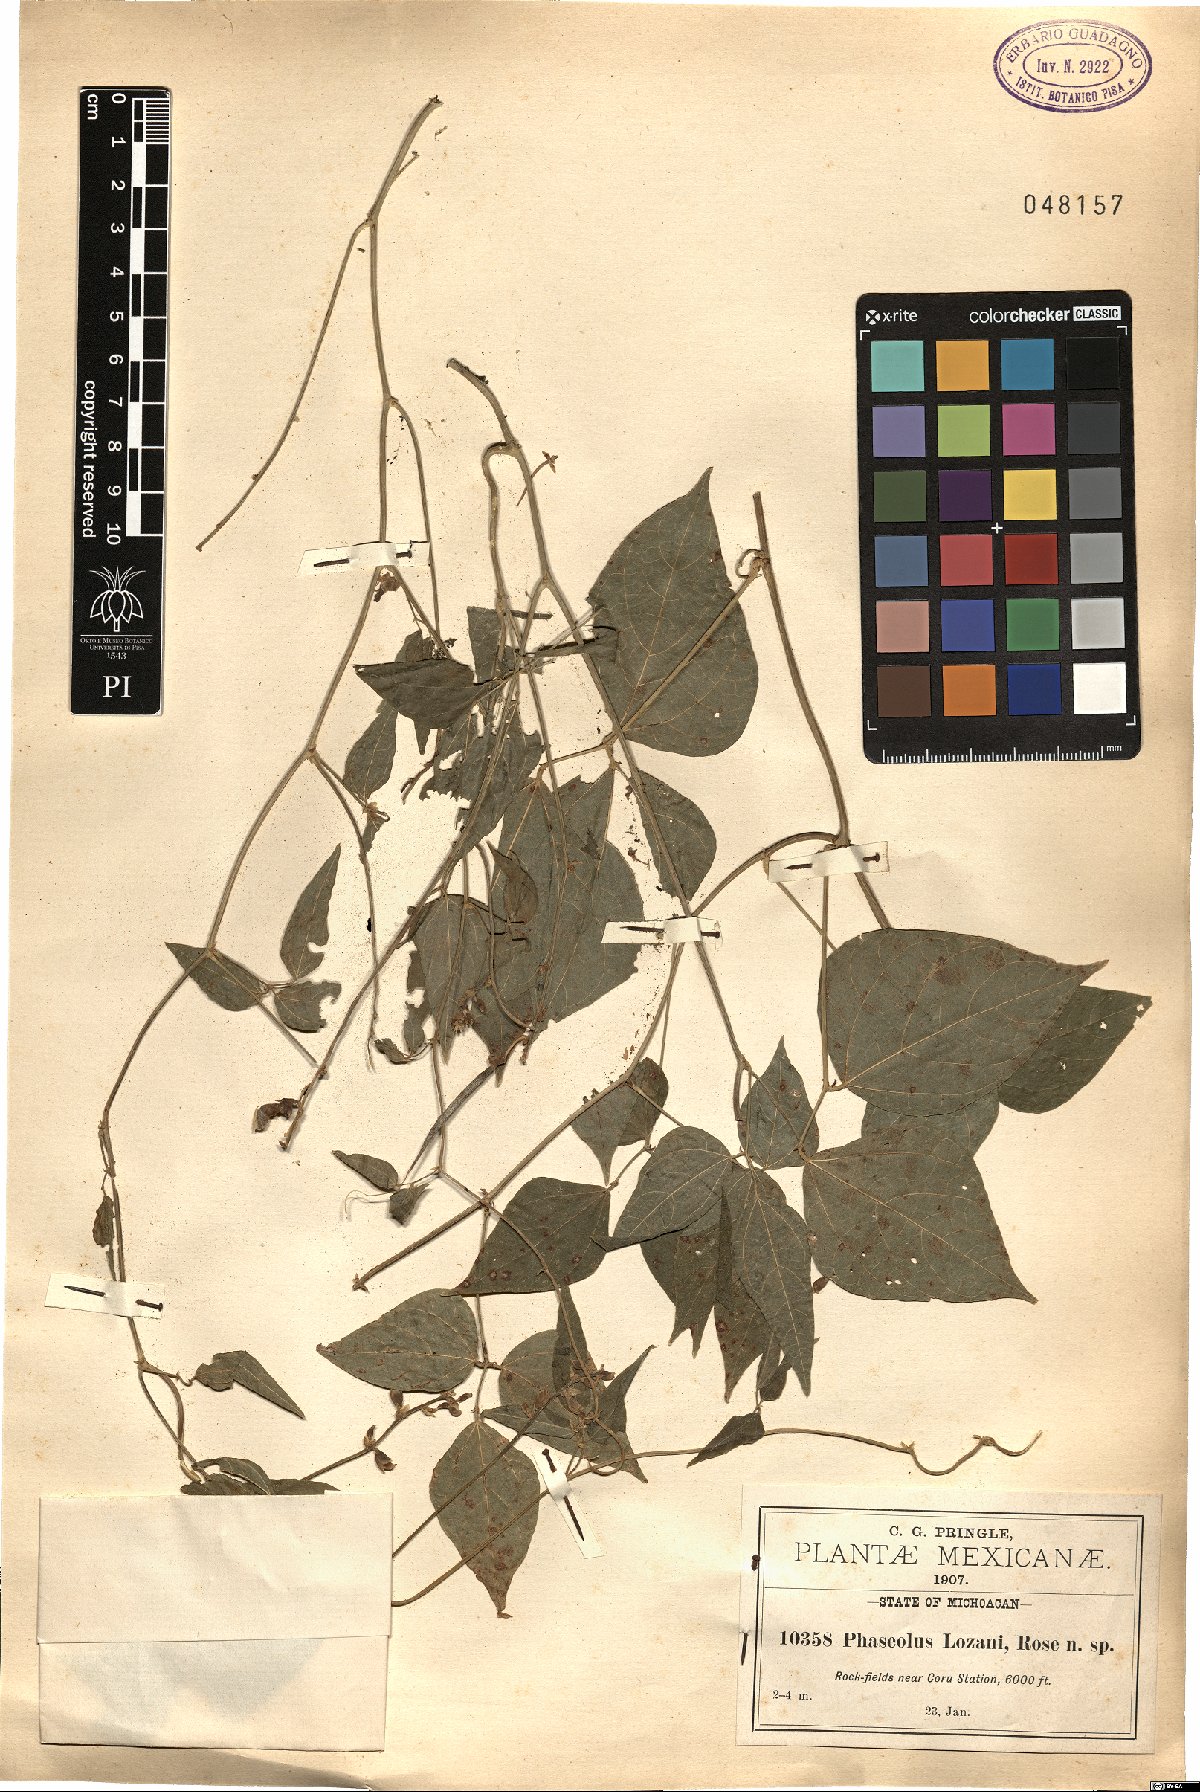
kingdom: Plantae
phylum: Tracheophyta
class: Magnoliopsida
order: Fabales
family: Fabaceae
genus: Ramirezella
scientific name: Ramirezella lozanii
